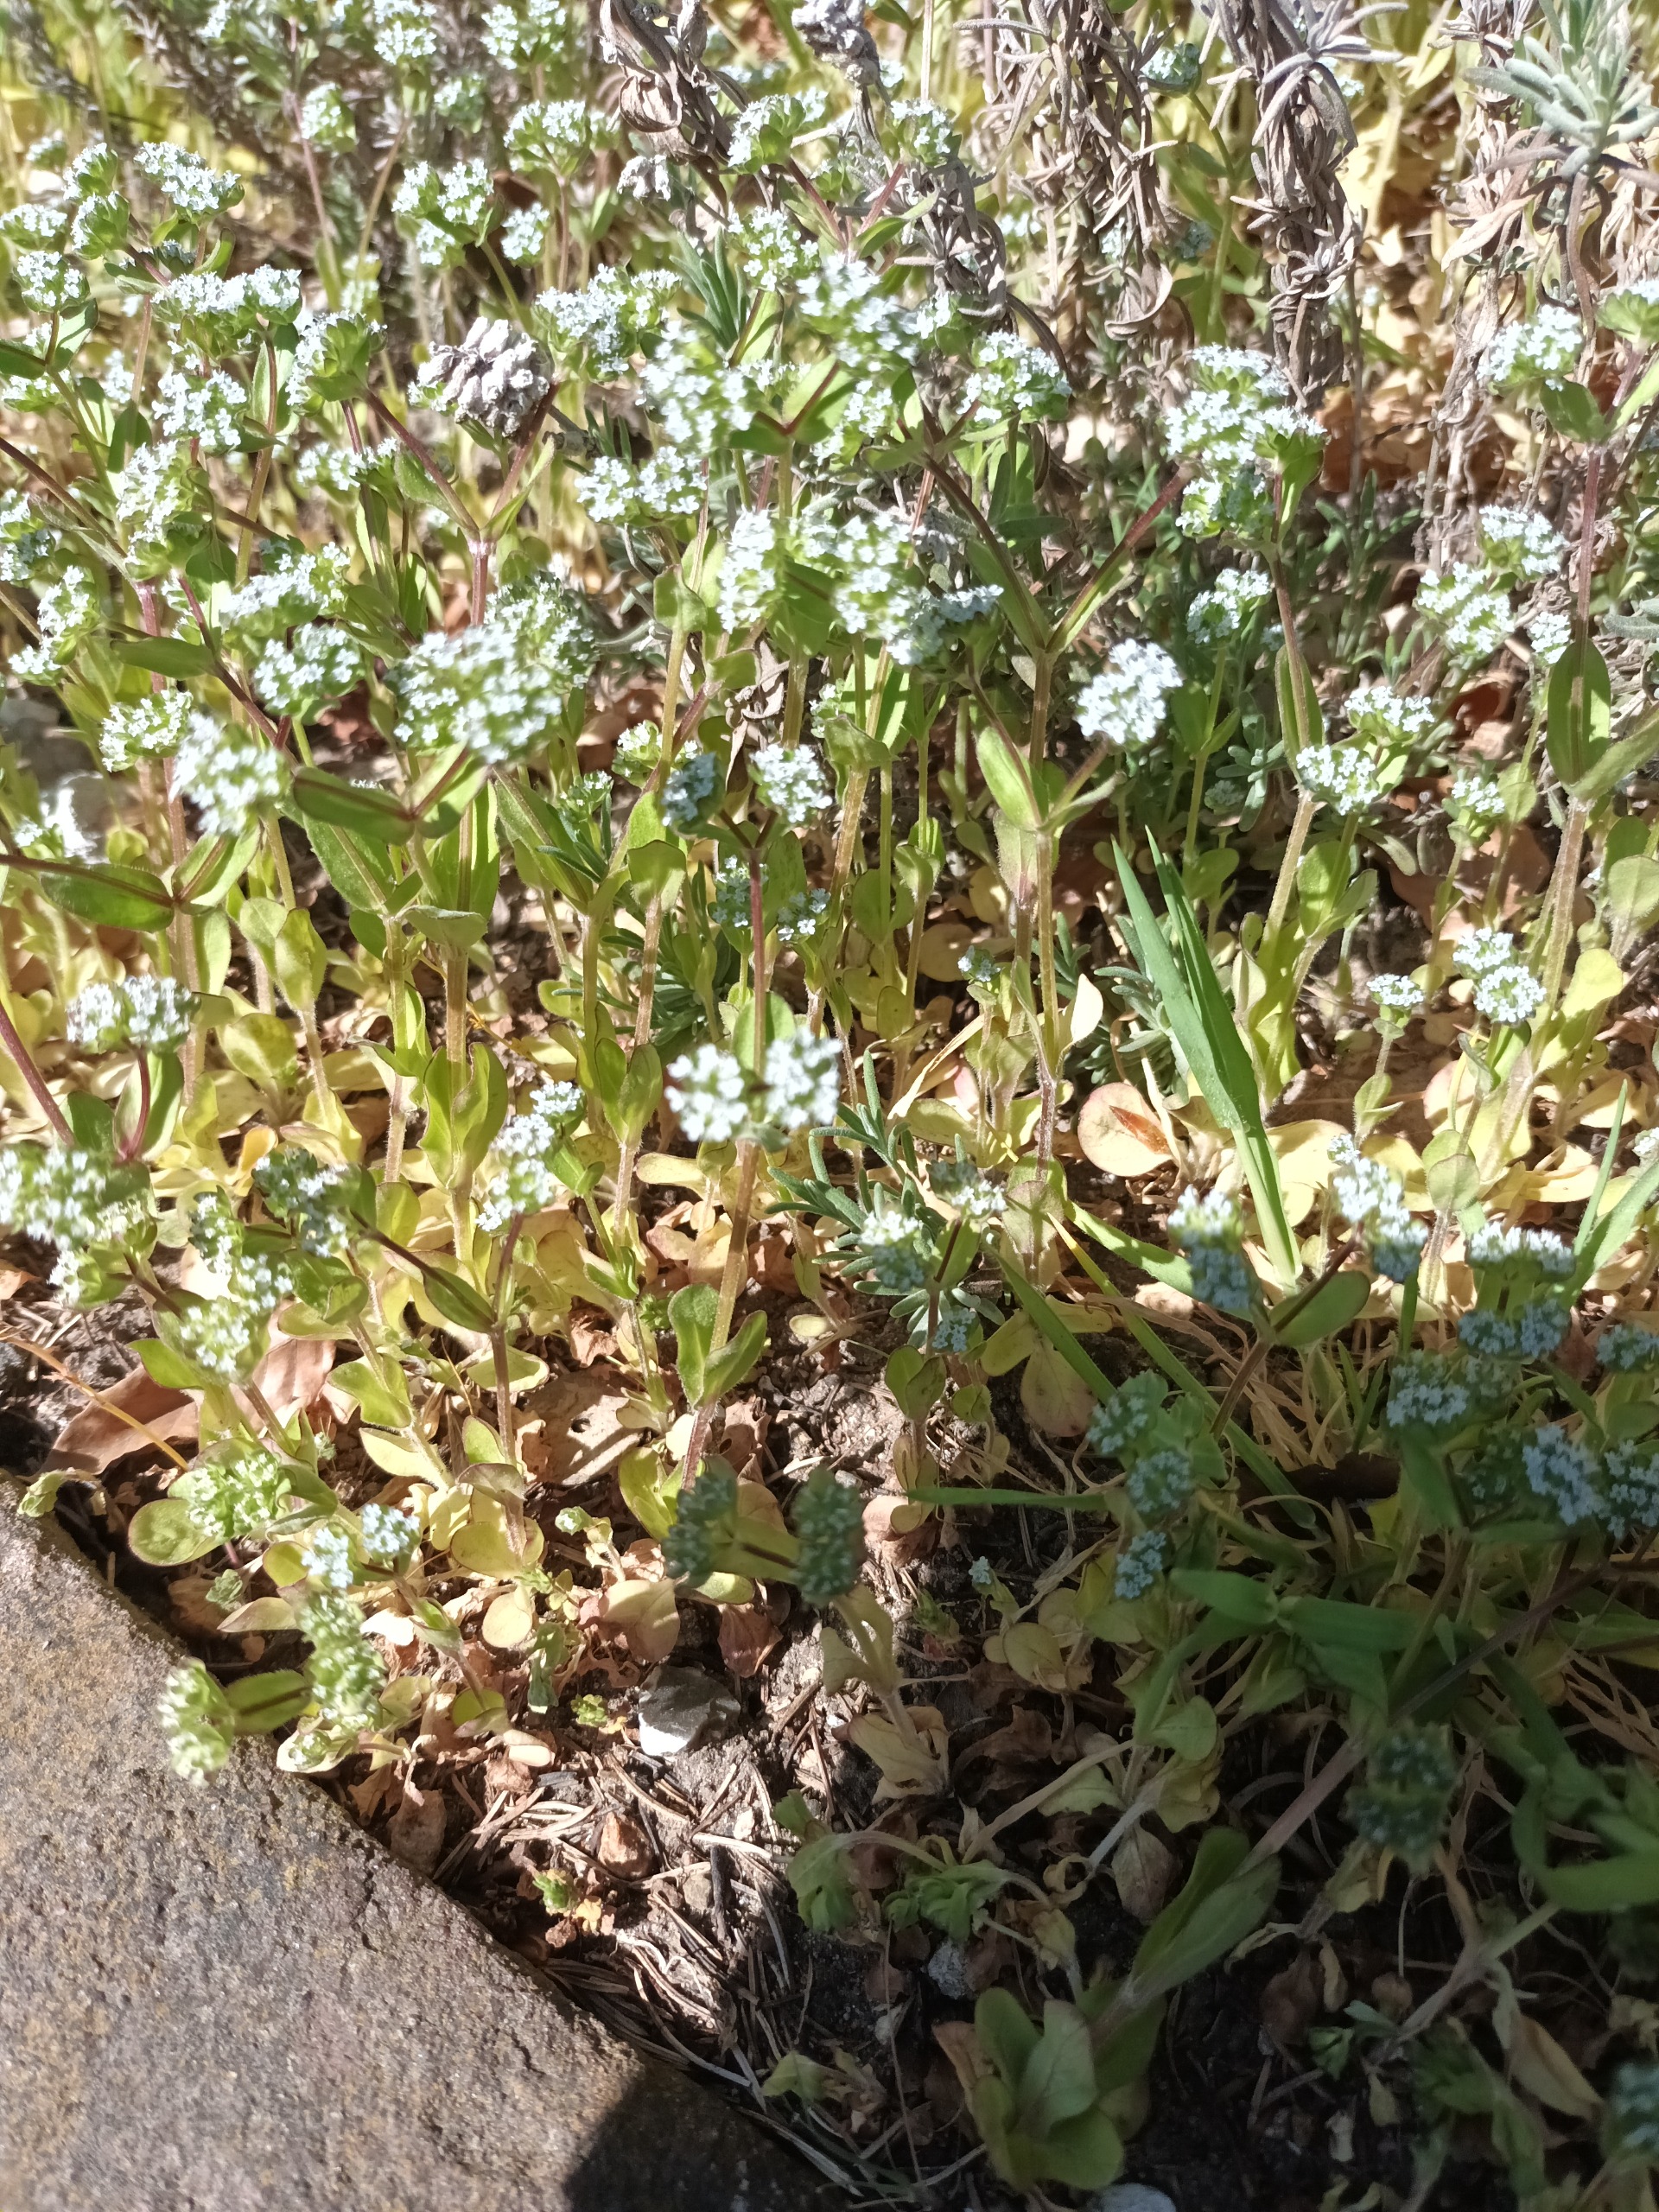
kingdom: Plantae
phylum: Tracheophyta
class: Magnoliopsida
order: Dipsacales
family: Caprifoliaceae
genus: Valerianella
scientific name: Valerianella locusta
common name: Tandfri vårsalat
